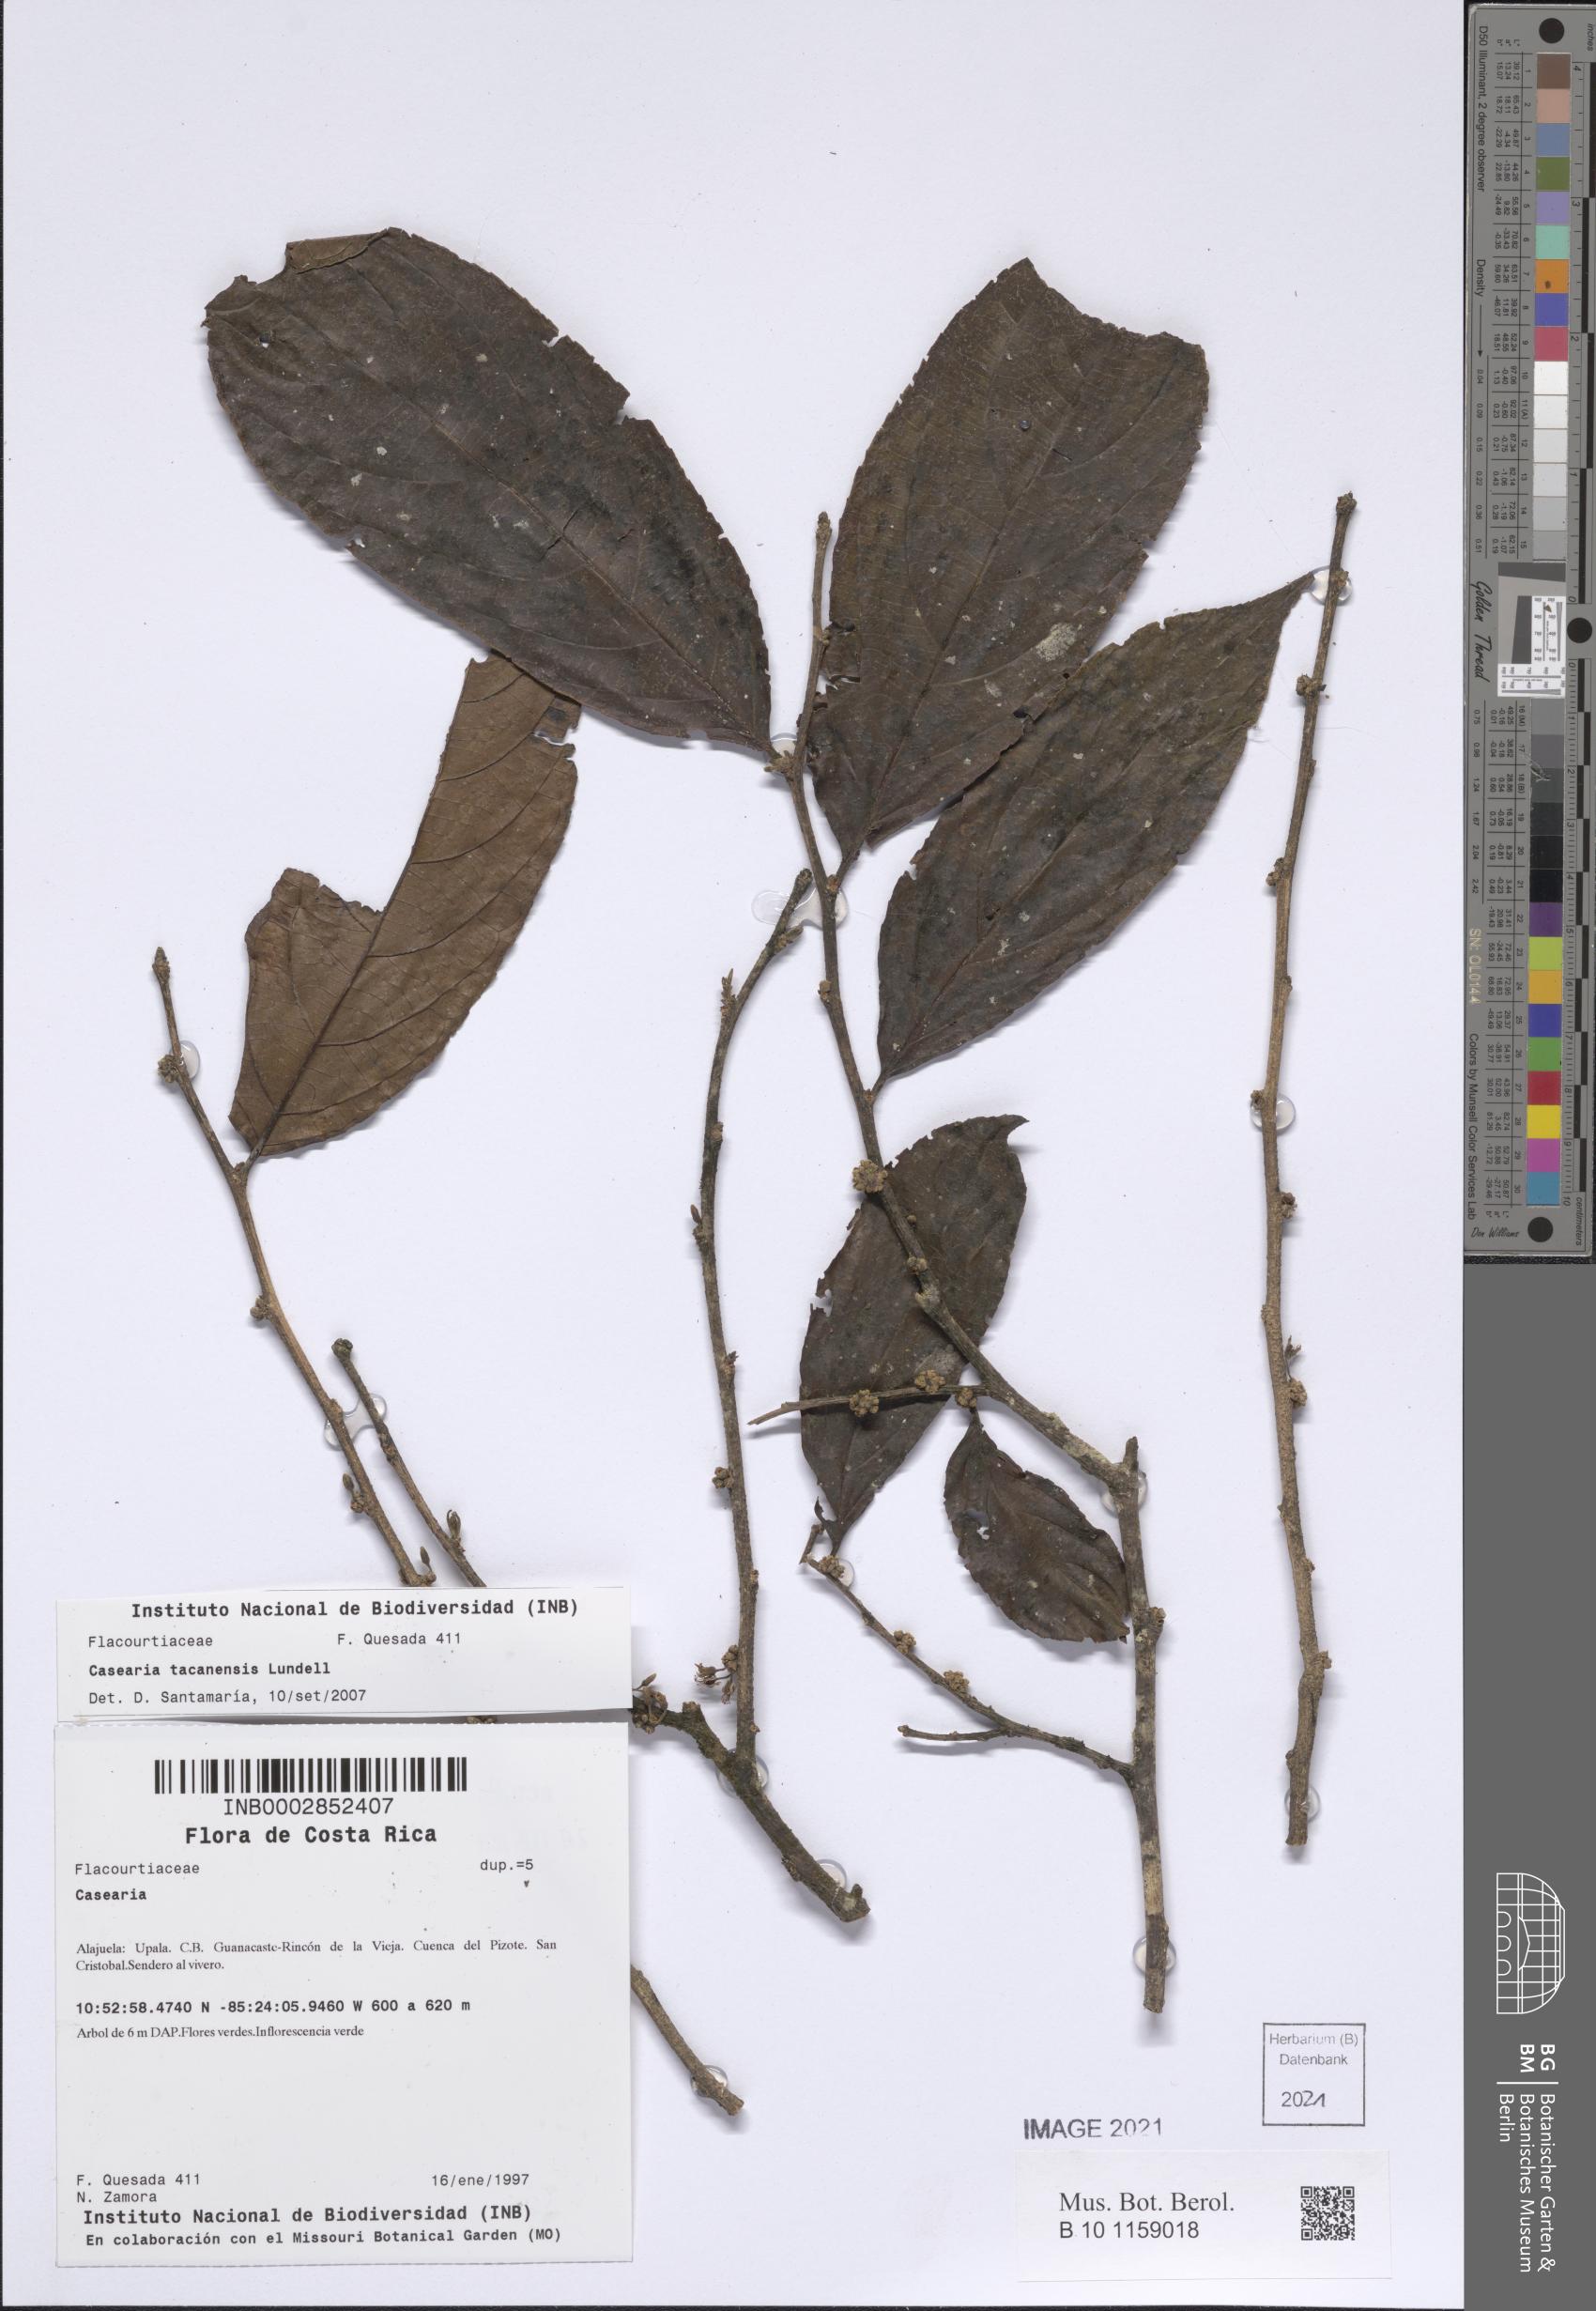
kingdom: Plantae
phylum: Tracheophyta
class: Magnoliopsida
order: Malpighiales
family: Salicaceae
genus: Casearia
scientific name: Casearia tacanensis
